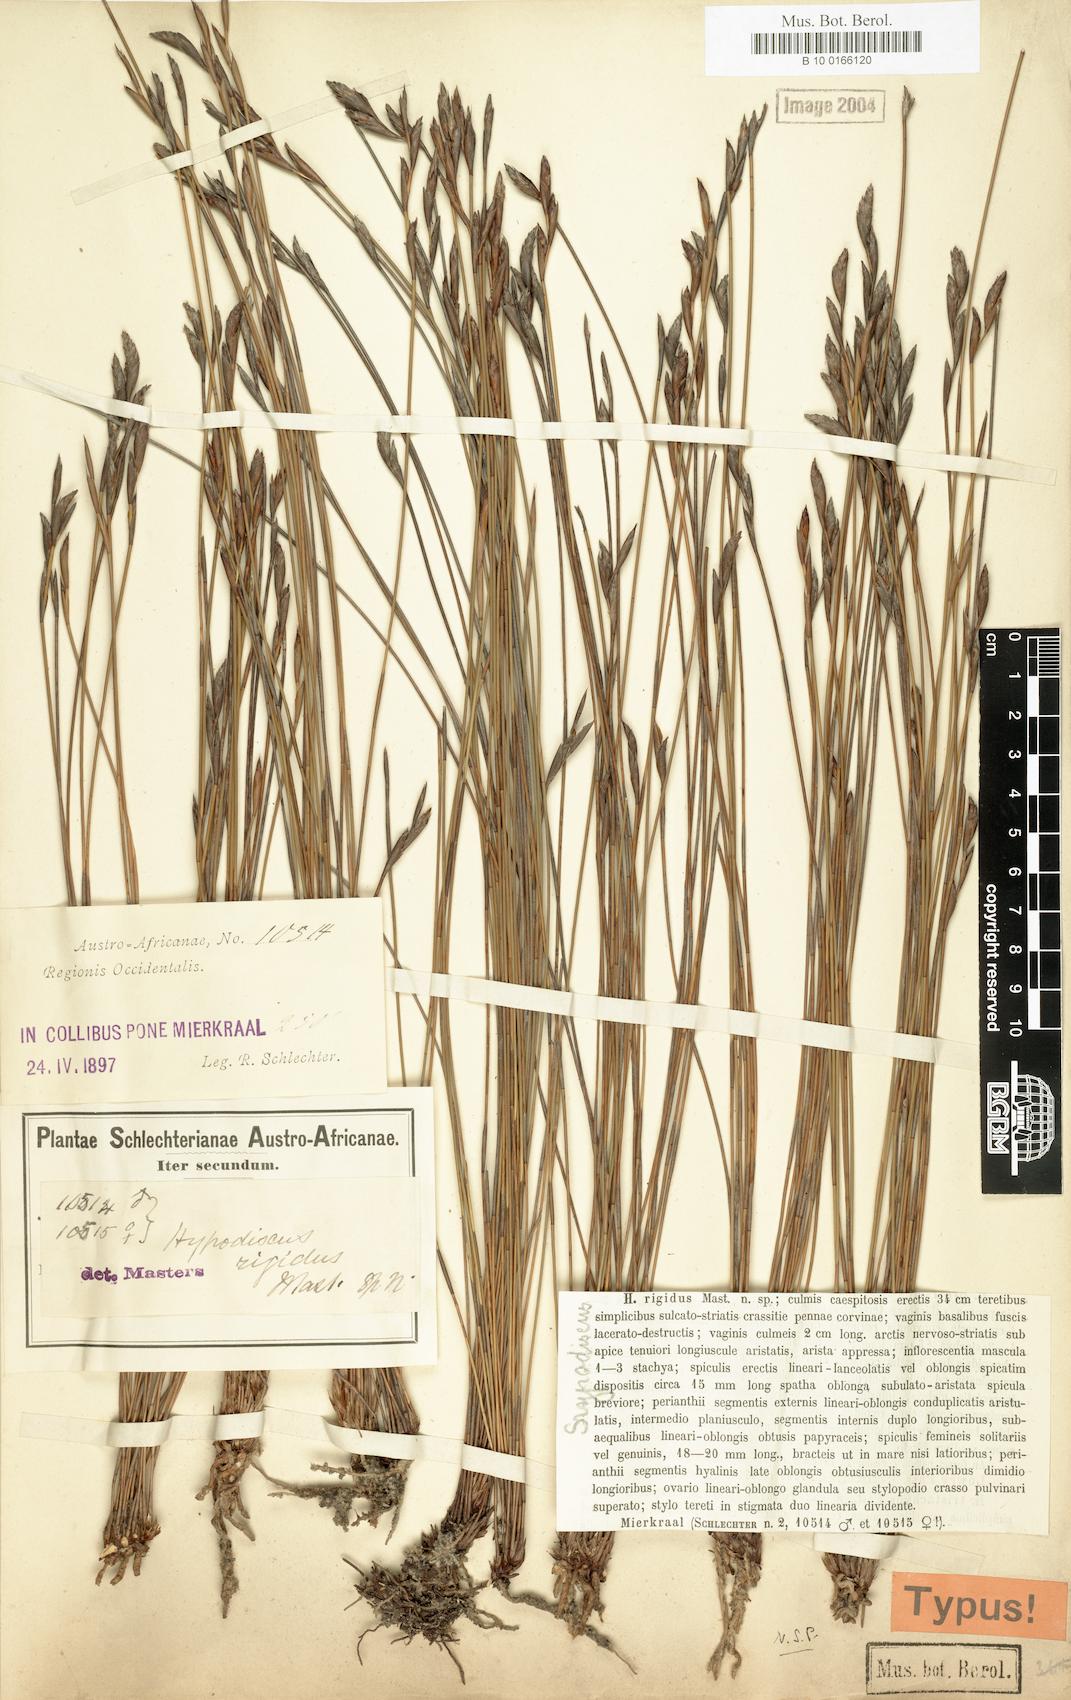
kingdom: Plantae
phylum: Tracheophyta
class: Liliopsida
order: Poales
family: Restionaceae
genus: Hypodiscus
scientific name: Hypodiscus striatus
